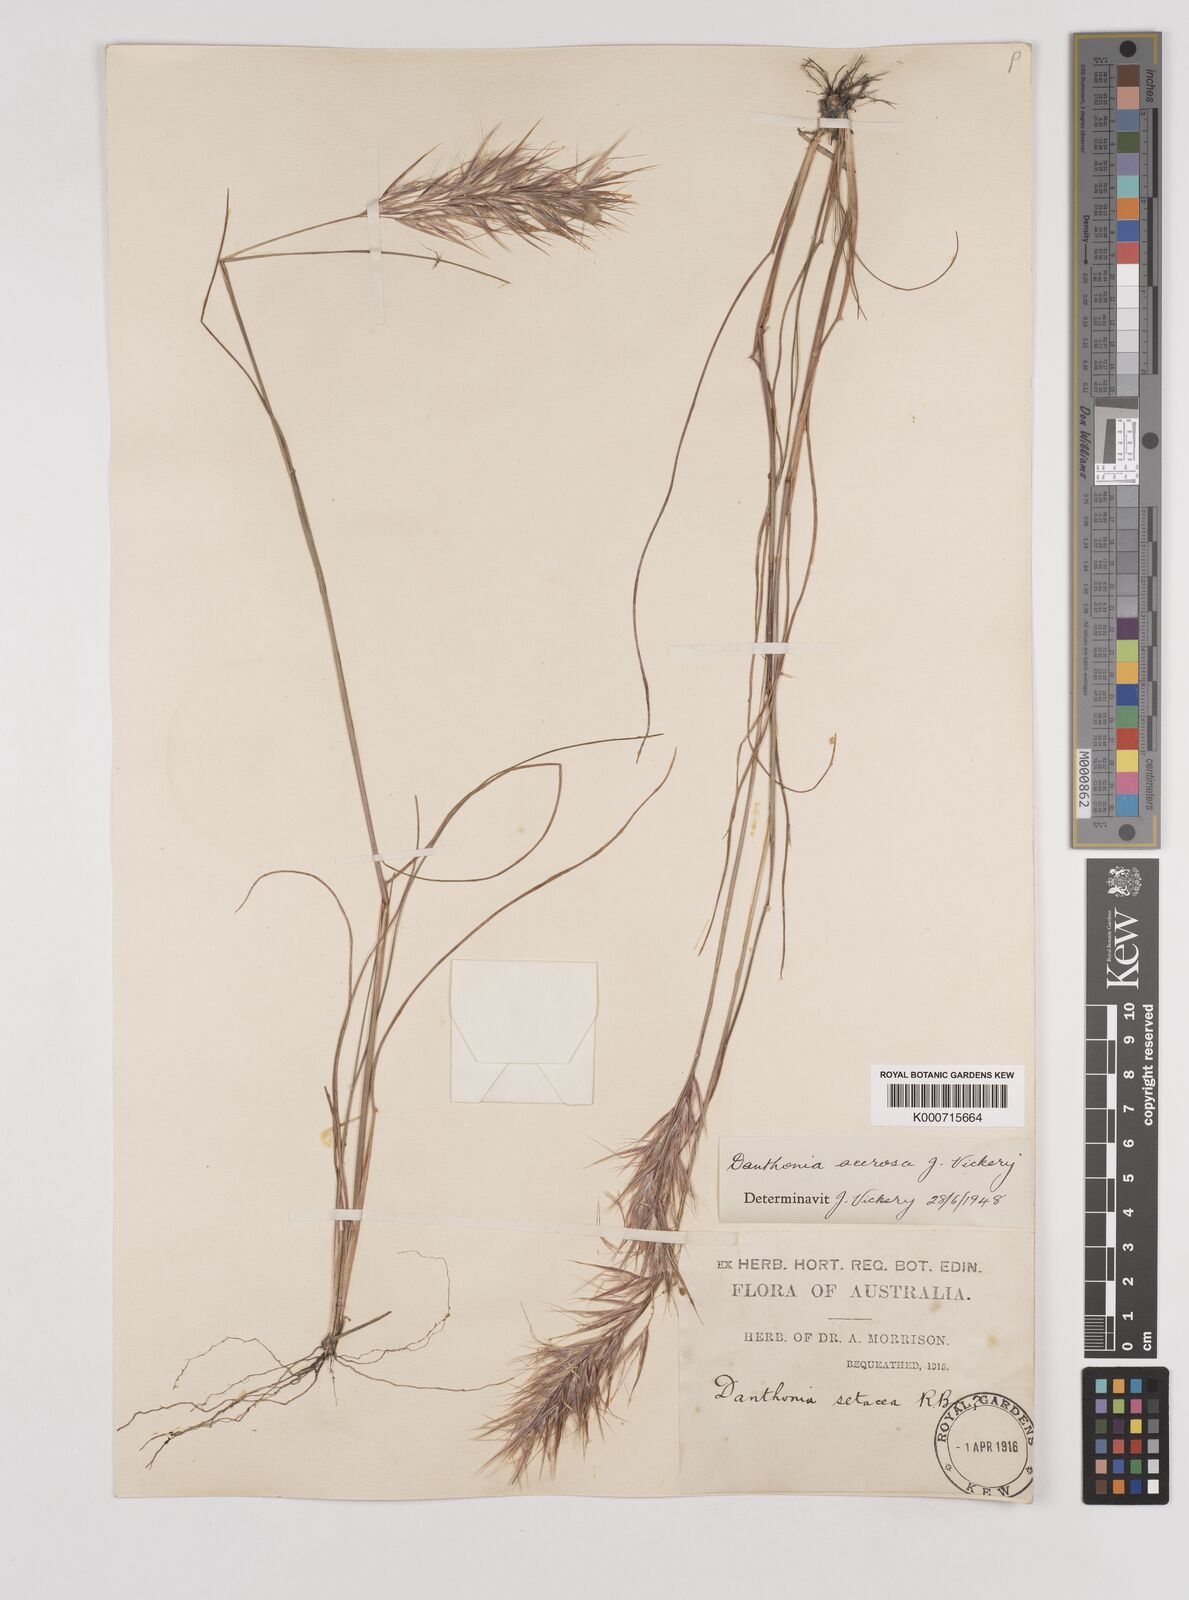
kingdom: Plantae
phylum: Tracheophyta
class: Liliopsida
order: Poales
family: Poaceae
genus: Rytidosperma
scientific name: Rytidosperma acerosum
